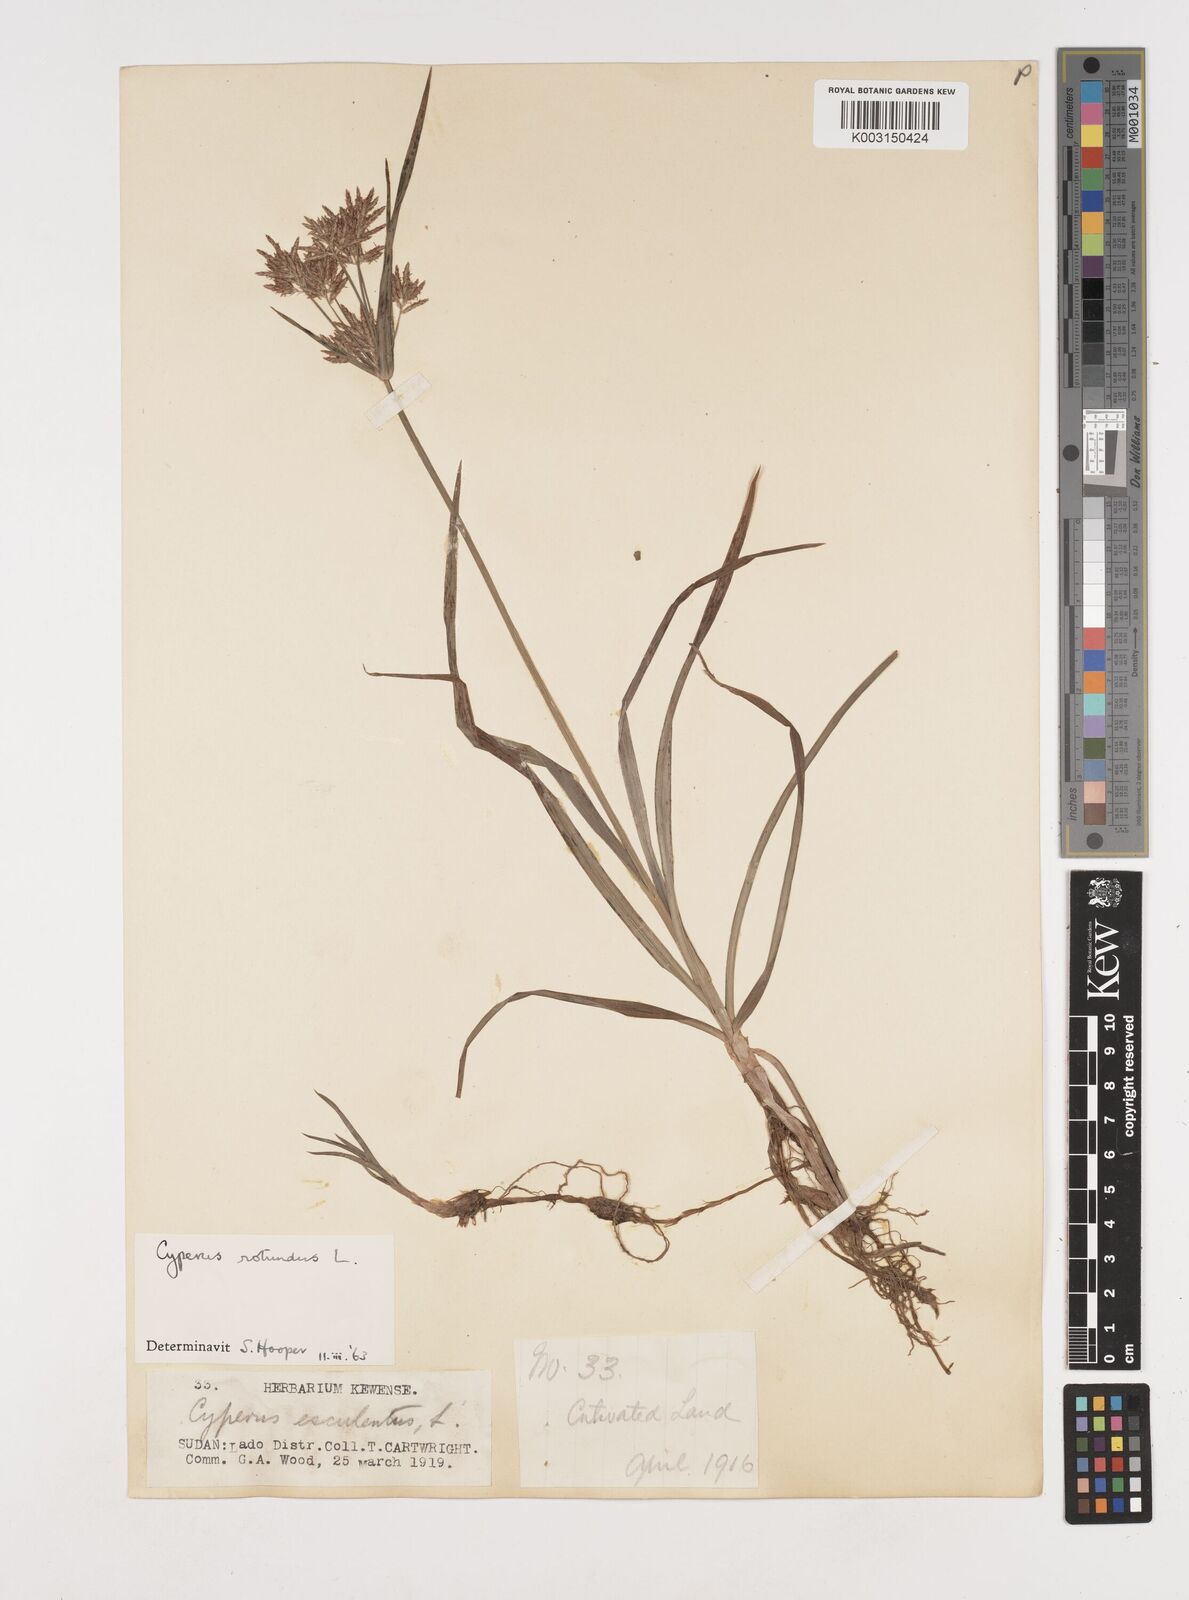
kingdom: Plantae
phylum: Tracheophyta
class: Liliopsida
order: Poales
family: Cyperaceae
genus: Cyperus
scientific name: Cyperus rotundus
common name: Nutgrass
